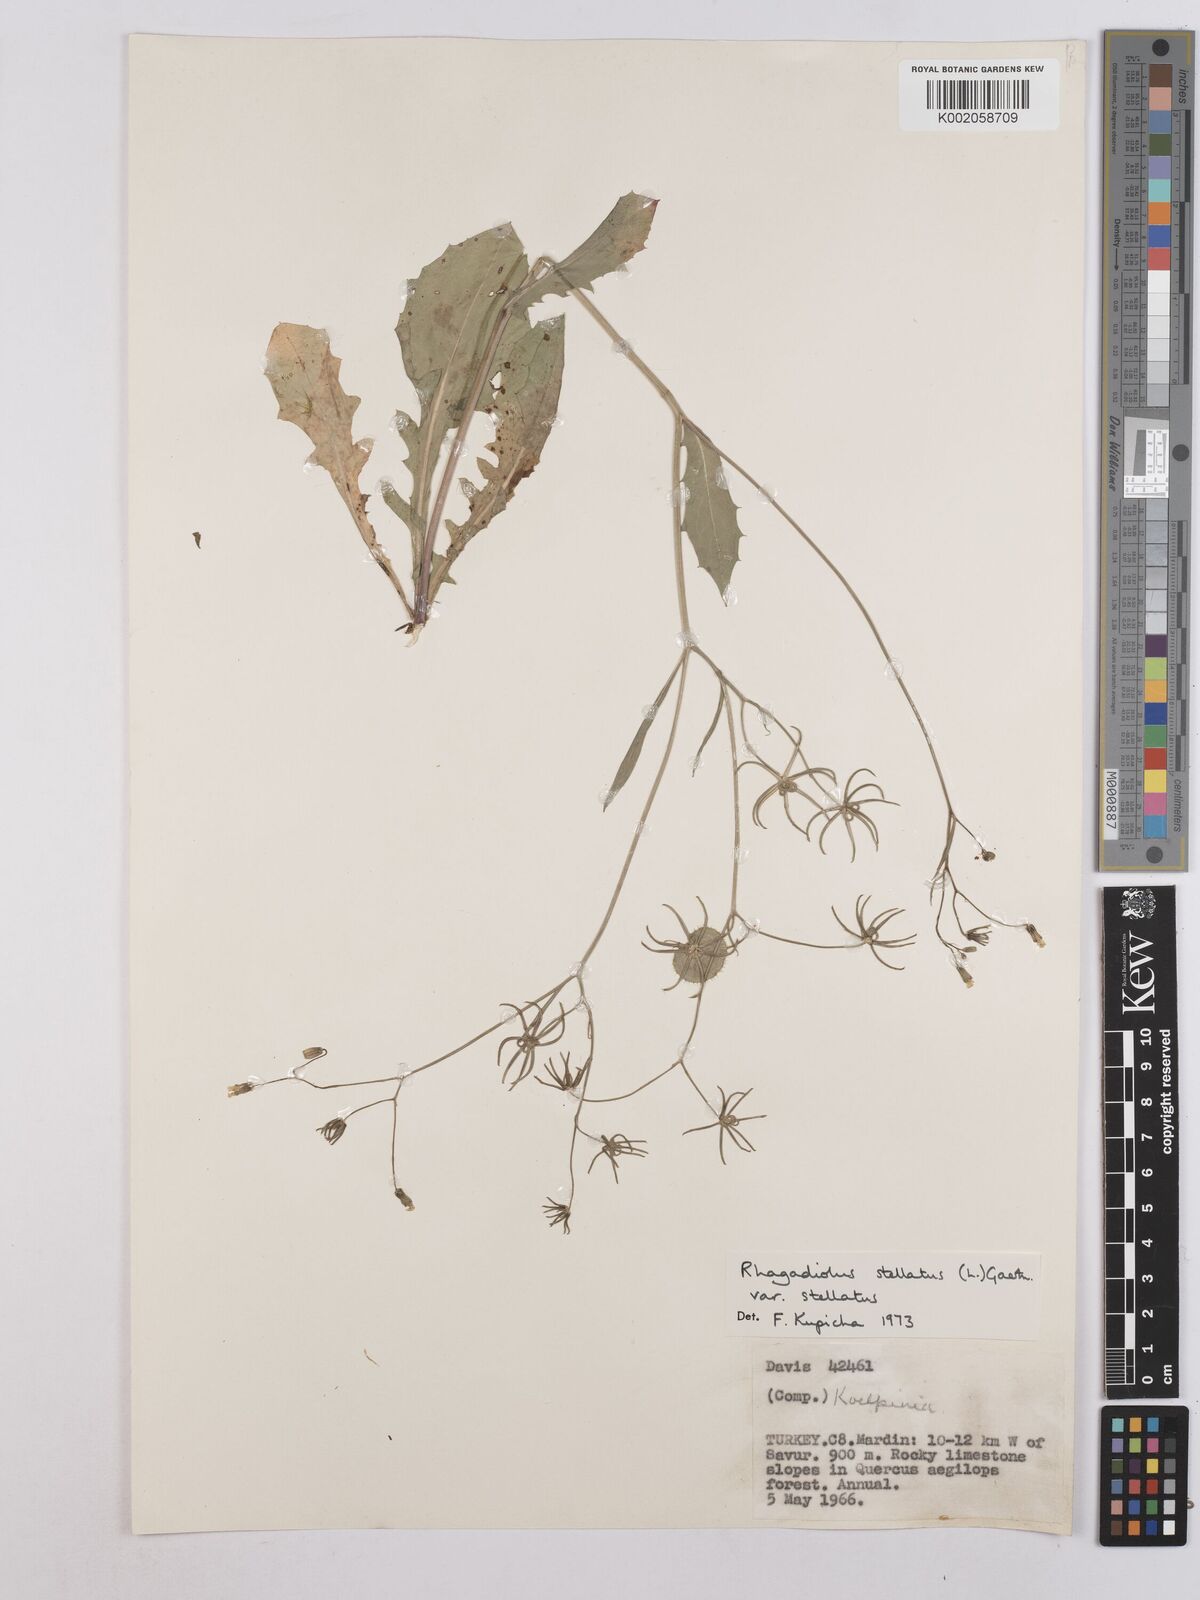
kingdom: Plantae
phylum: Tracheophyta
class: Magnoliopsida
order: Asterales
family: Asteraceae
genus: Rhagadiolus
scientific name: Rhagadiolus stellatus
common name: Star hawkbit
